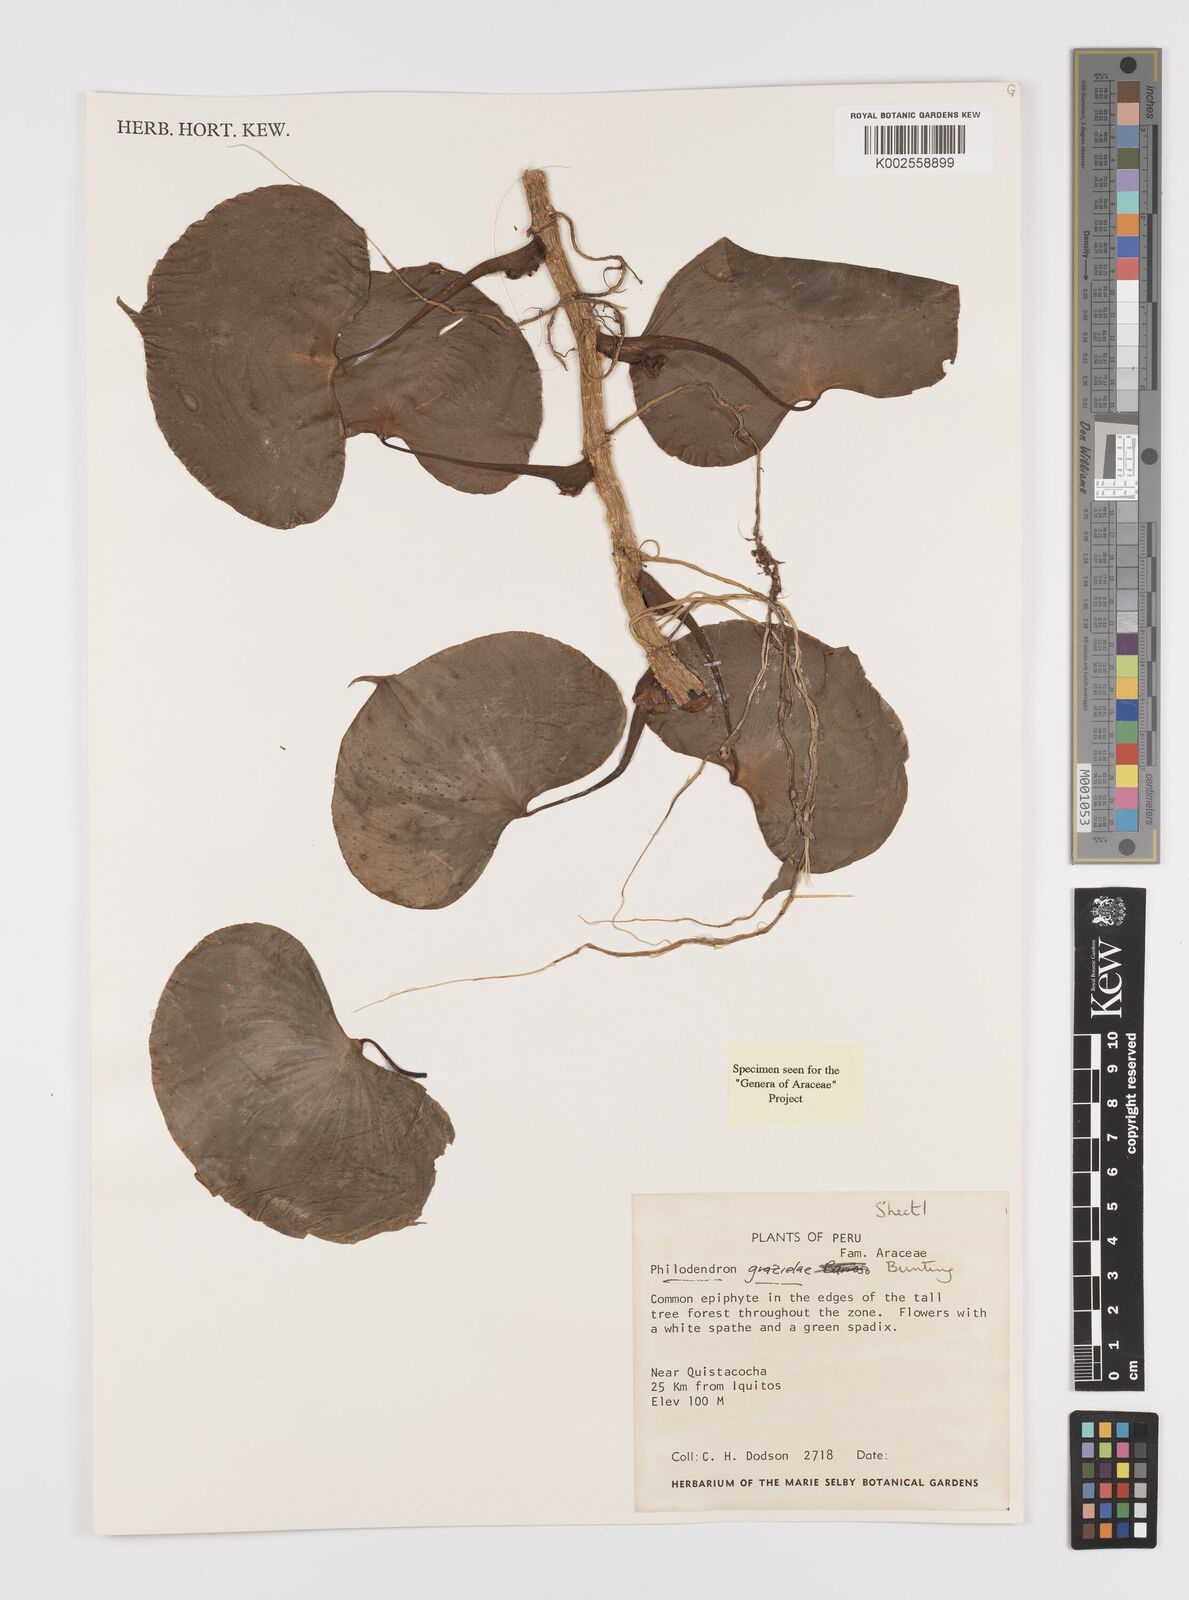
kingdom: Plantae
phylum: Tracheophyta
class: Liliopsida
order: Alismatales
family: Araceae
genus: Philodendron
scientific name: Philodendron grazielae
